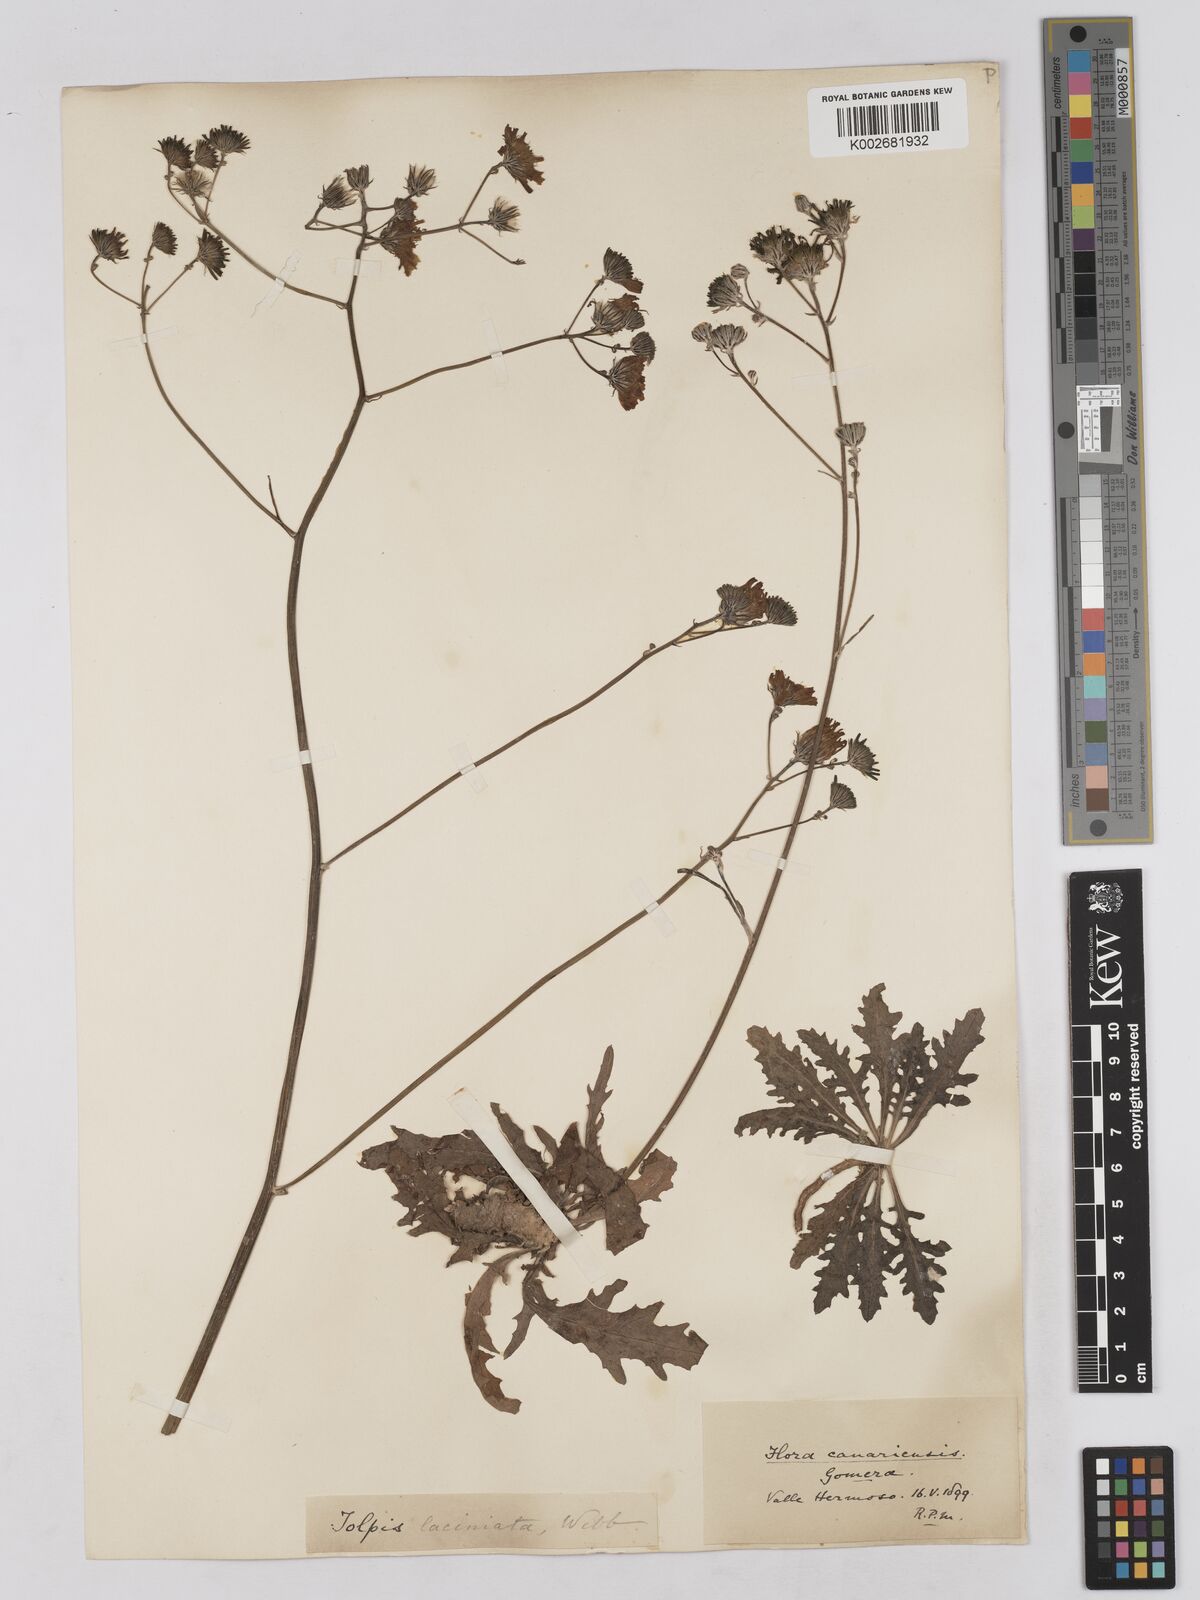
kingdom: Plantae
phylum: Tracheophyta
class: Magnoliopsida
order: Asterales
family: Asteraceae
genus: Tolpis
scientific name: Tolpis laciniata
